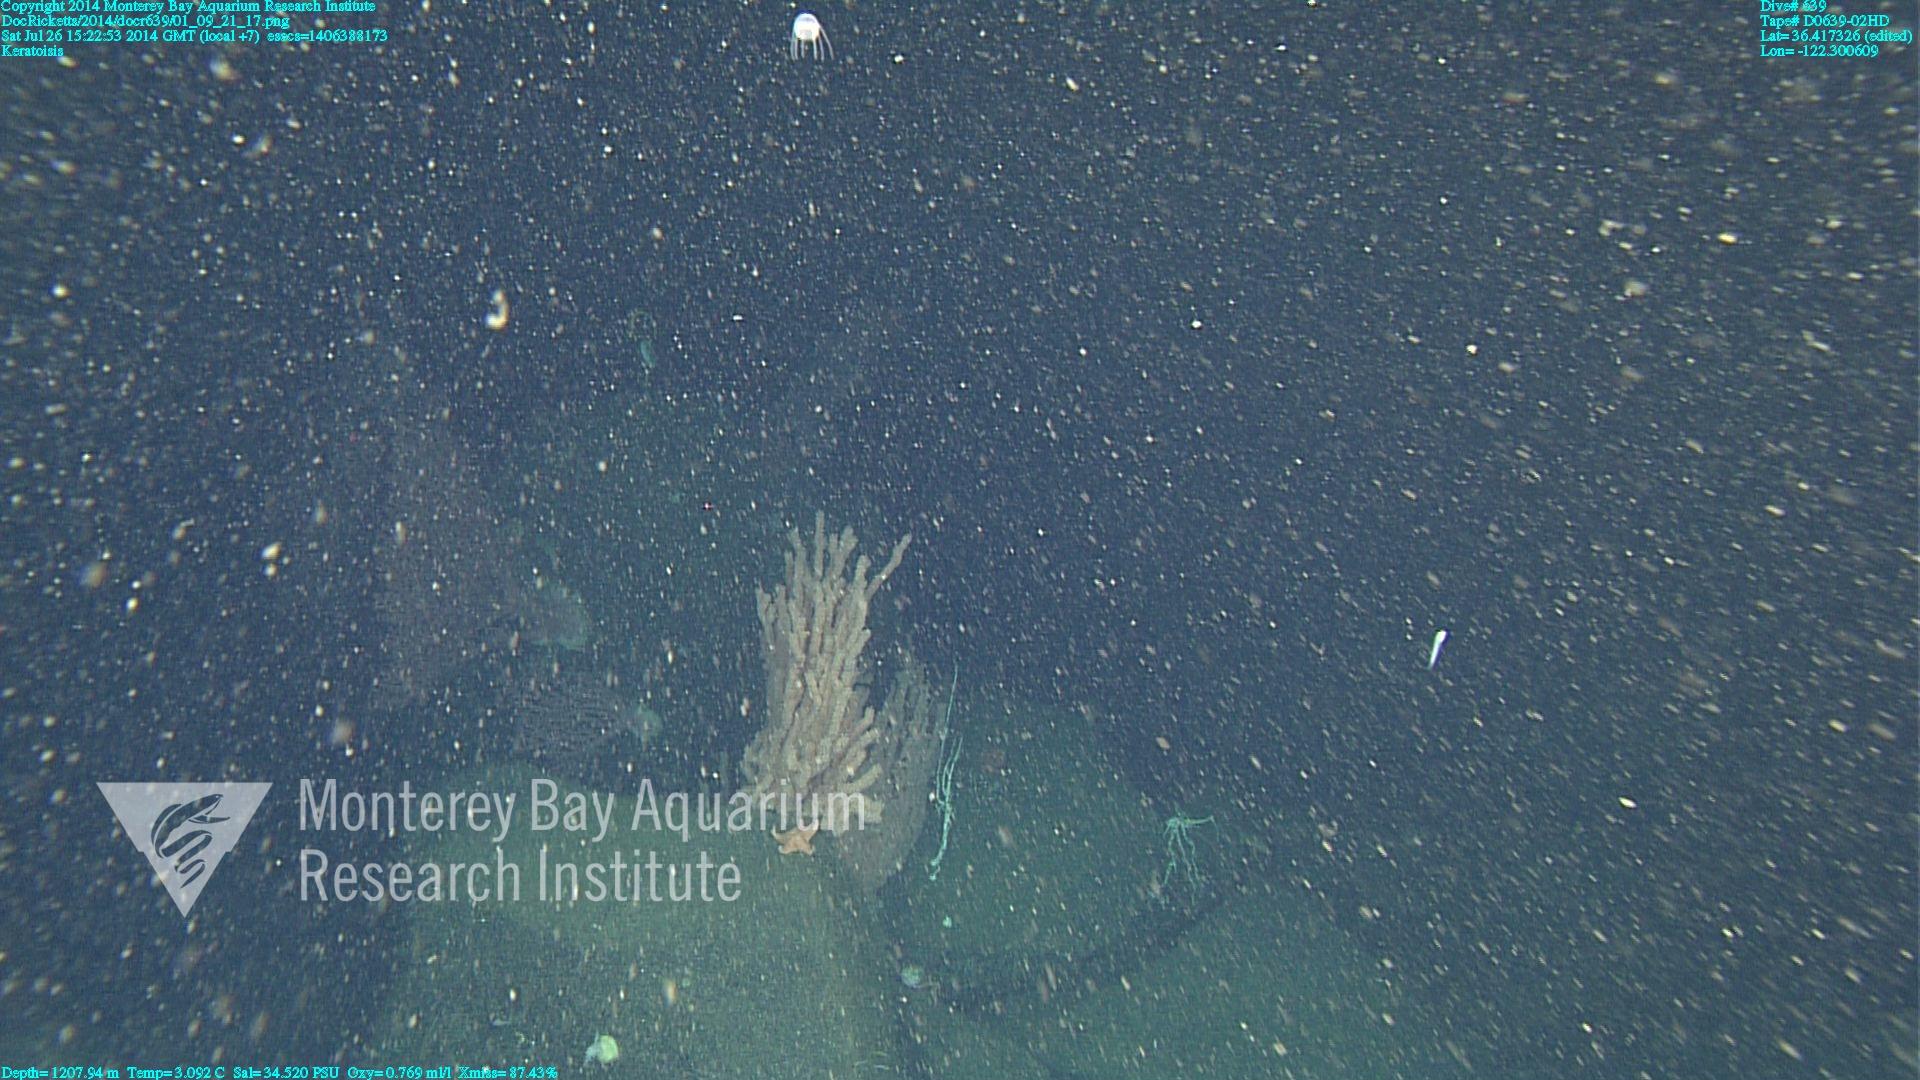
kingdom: Animalia
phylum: Cnidaria
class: Anthozoa
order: Scleralcyonacea
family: Keratoisididae
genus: Keratoisis
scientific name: Keratoisis
